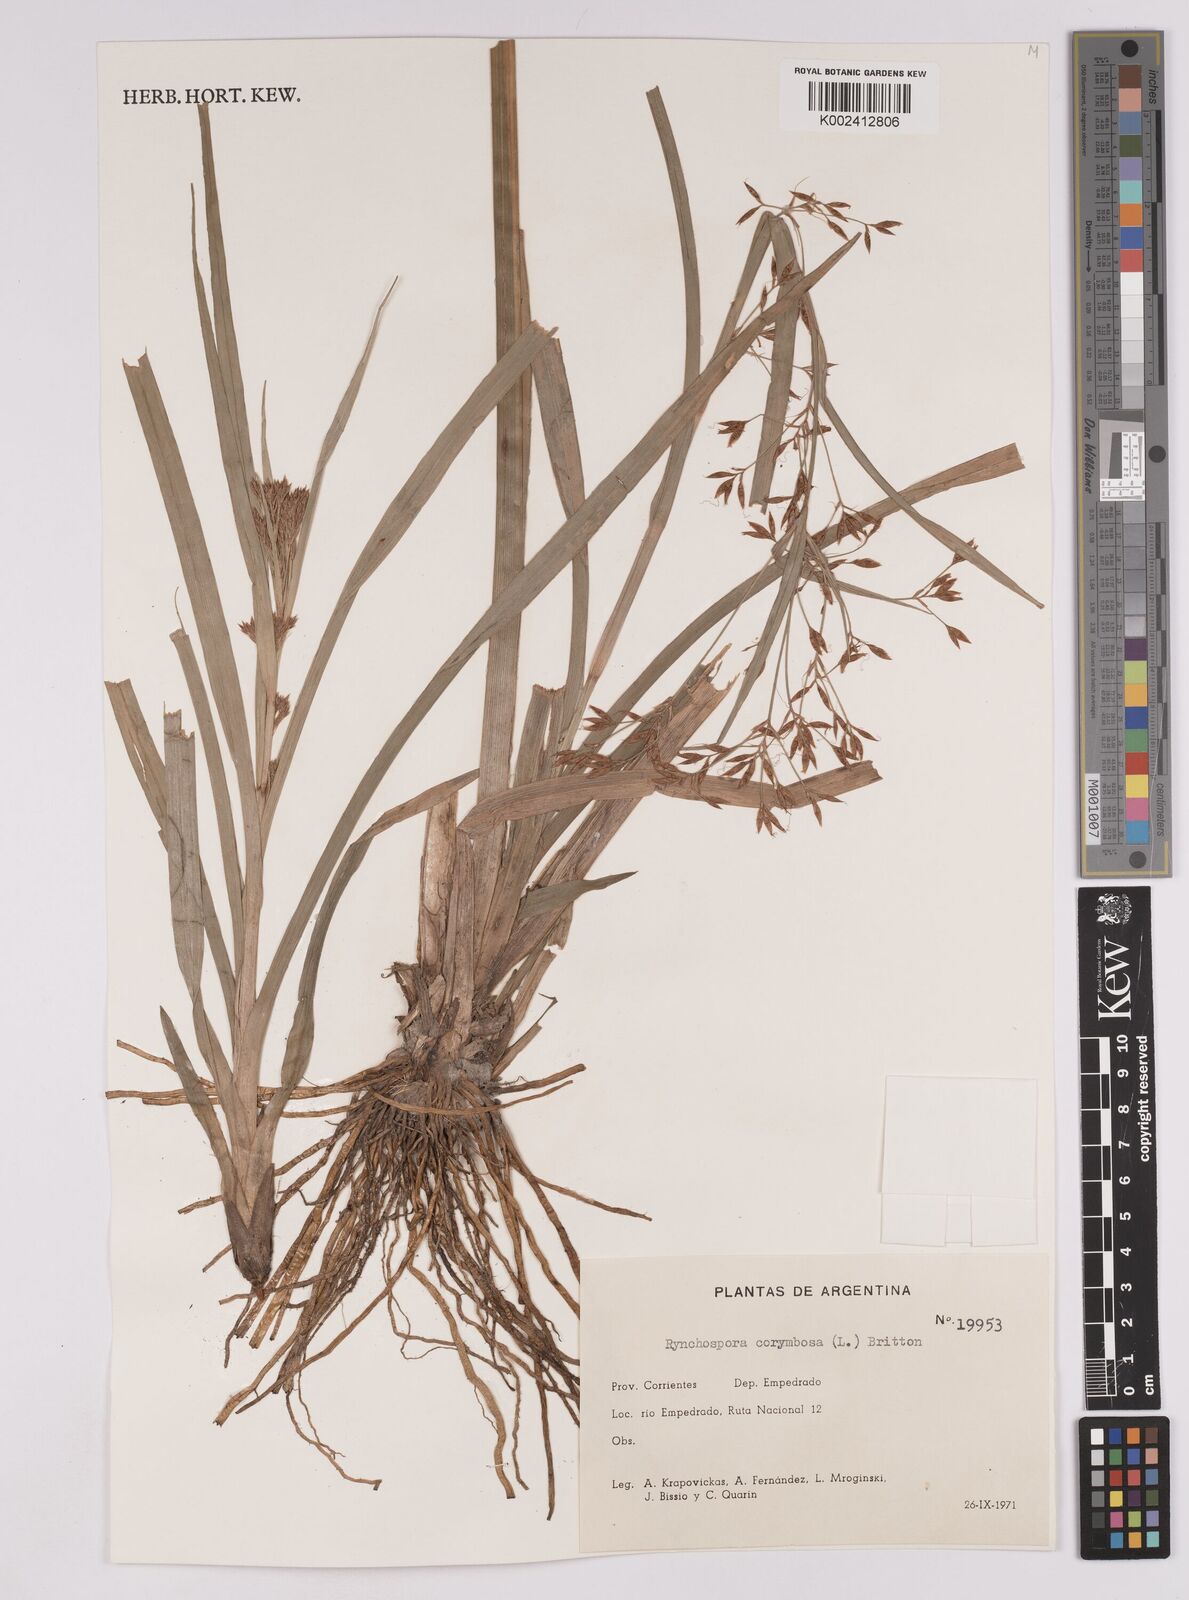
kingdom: Plantae
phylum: Tracheophyta
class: Liliopsida
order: Poales
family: Cyperaceae
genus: Rhynchospora
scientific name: Rhynchospora corymbosa
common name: Golden beak sedge
